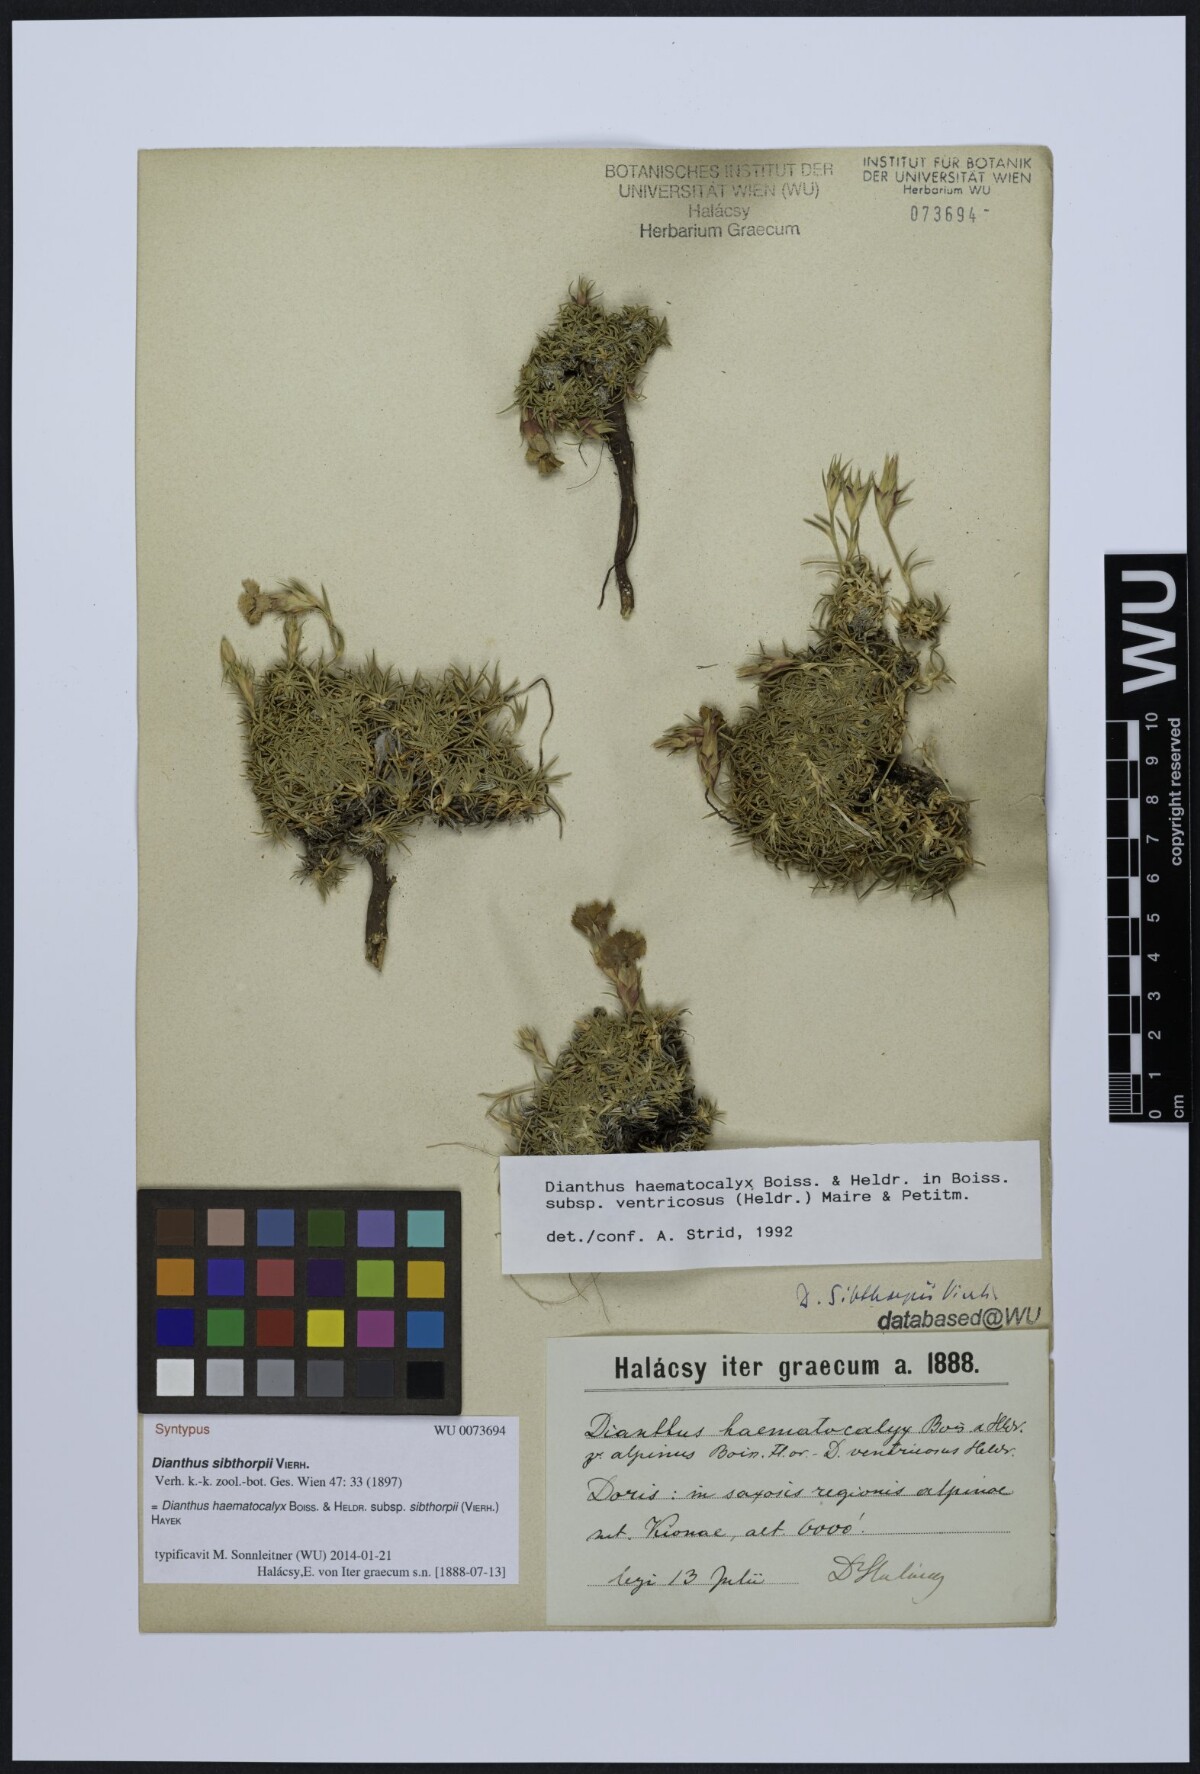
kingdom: Plantae
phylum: Tracheophyta
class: Magnoliopsida
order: Caryophyllales
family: Caryophyllaceae
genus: Dianthus
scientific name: Dianthus haematocalyx
